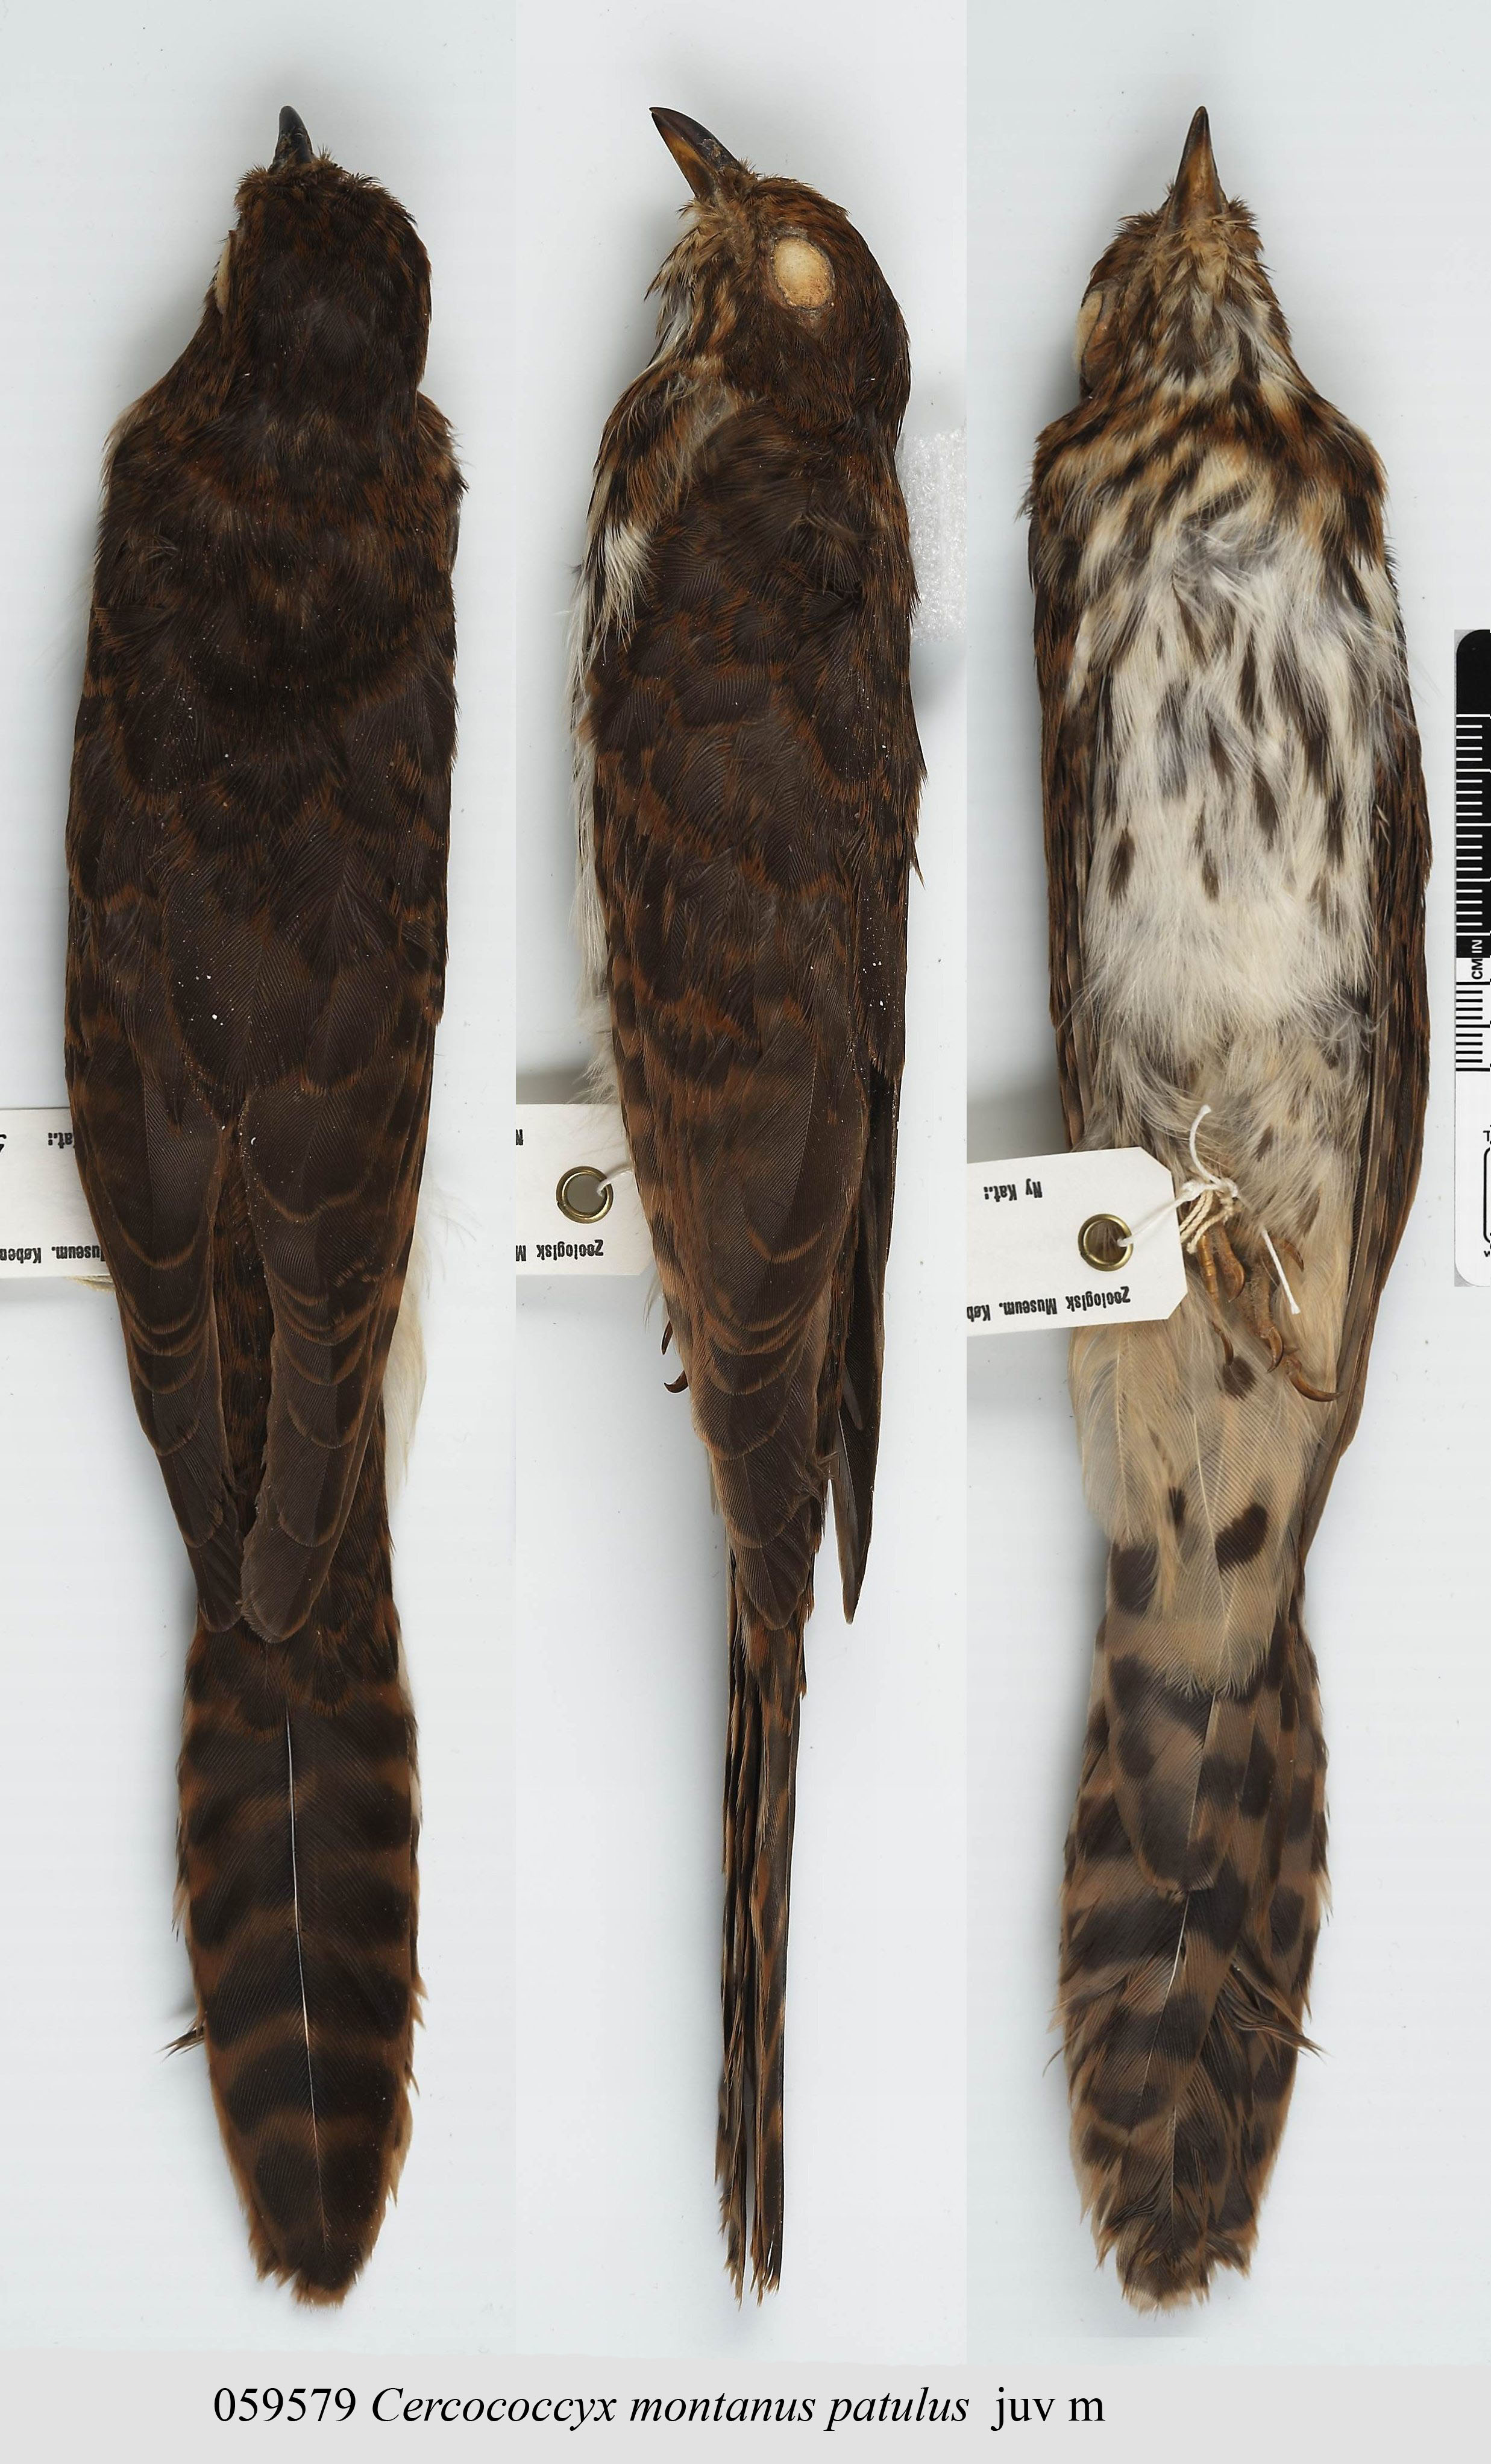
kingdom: Animalia
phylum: Chordata
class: Aves
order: Cuculiformes
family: Cuculidae
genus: Cercococcyx
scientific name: Cercococcyx montanus
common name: Barred long-tailed cuckoo
